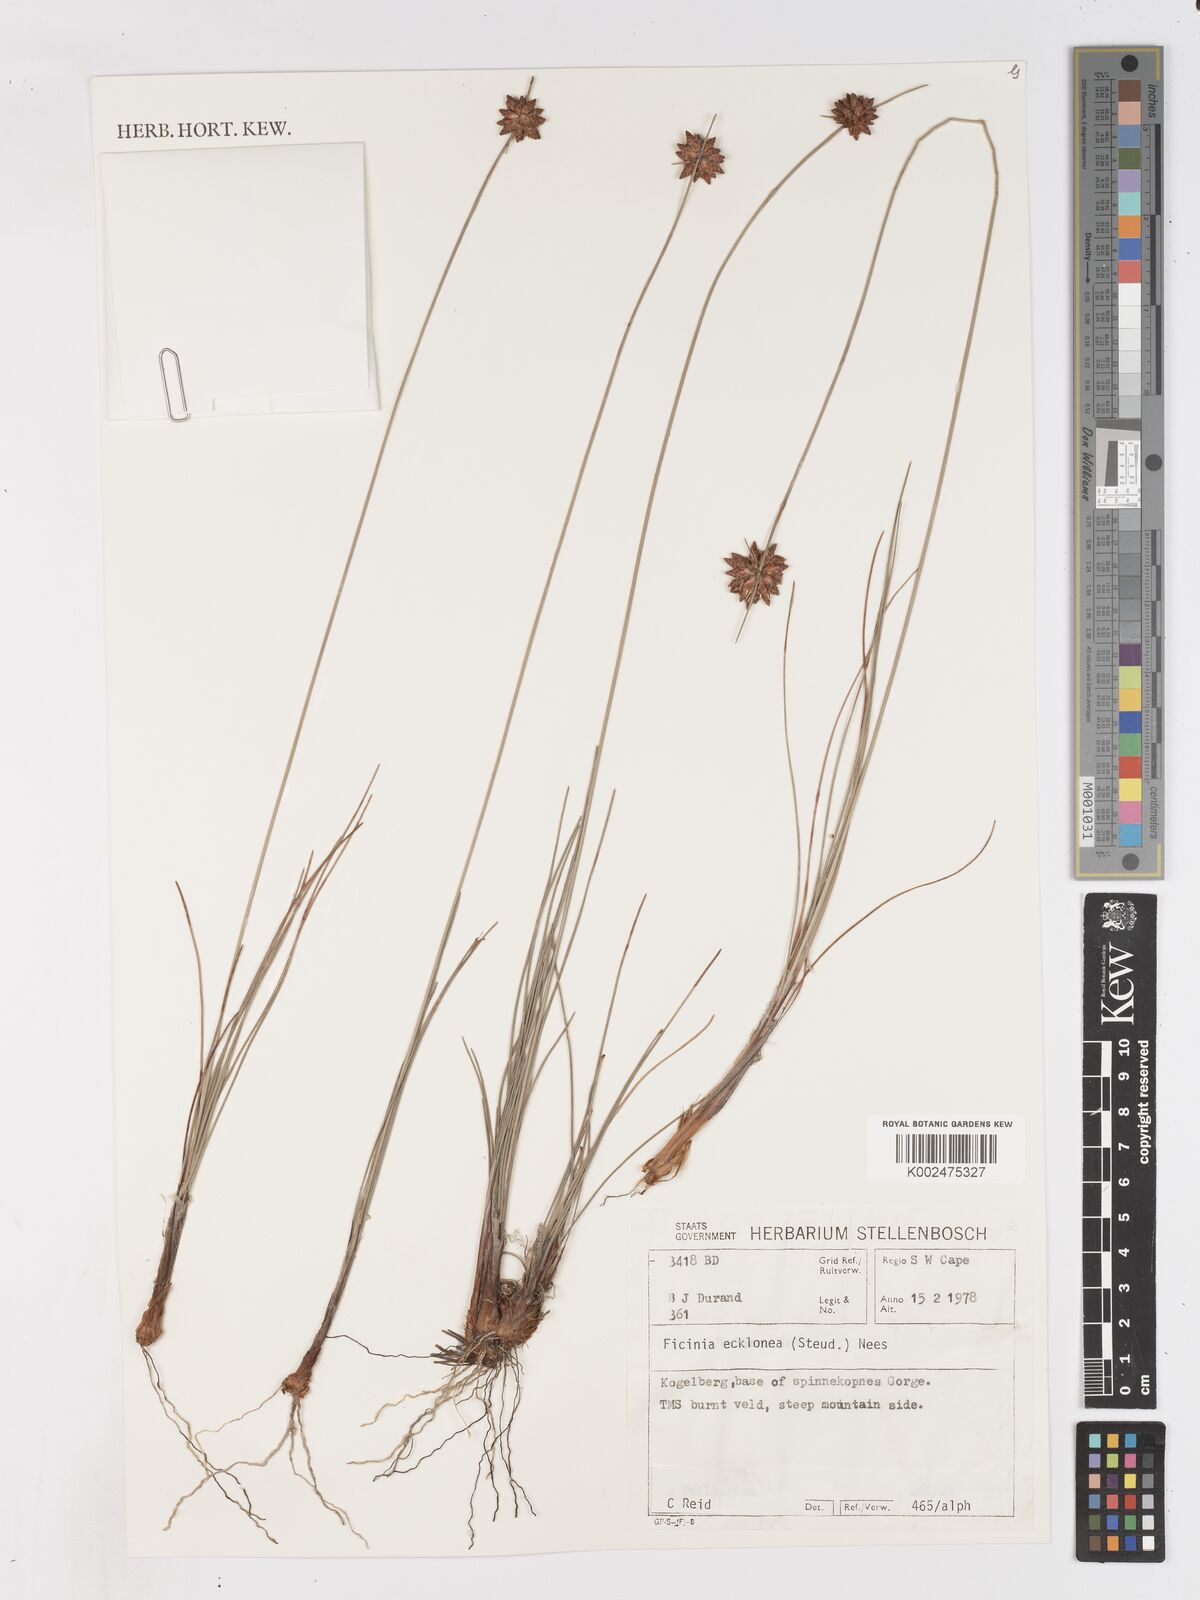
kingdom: Plantae
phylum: Tracheophyta
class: Liliopsida
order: Poales
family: Cyperaceae
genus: Ficinia
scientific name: Ficinia ecklonea
